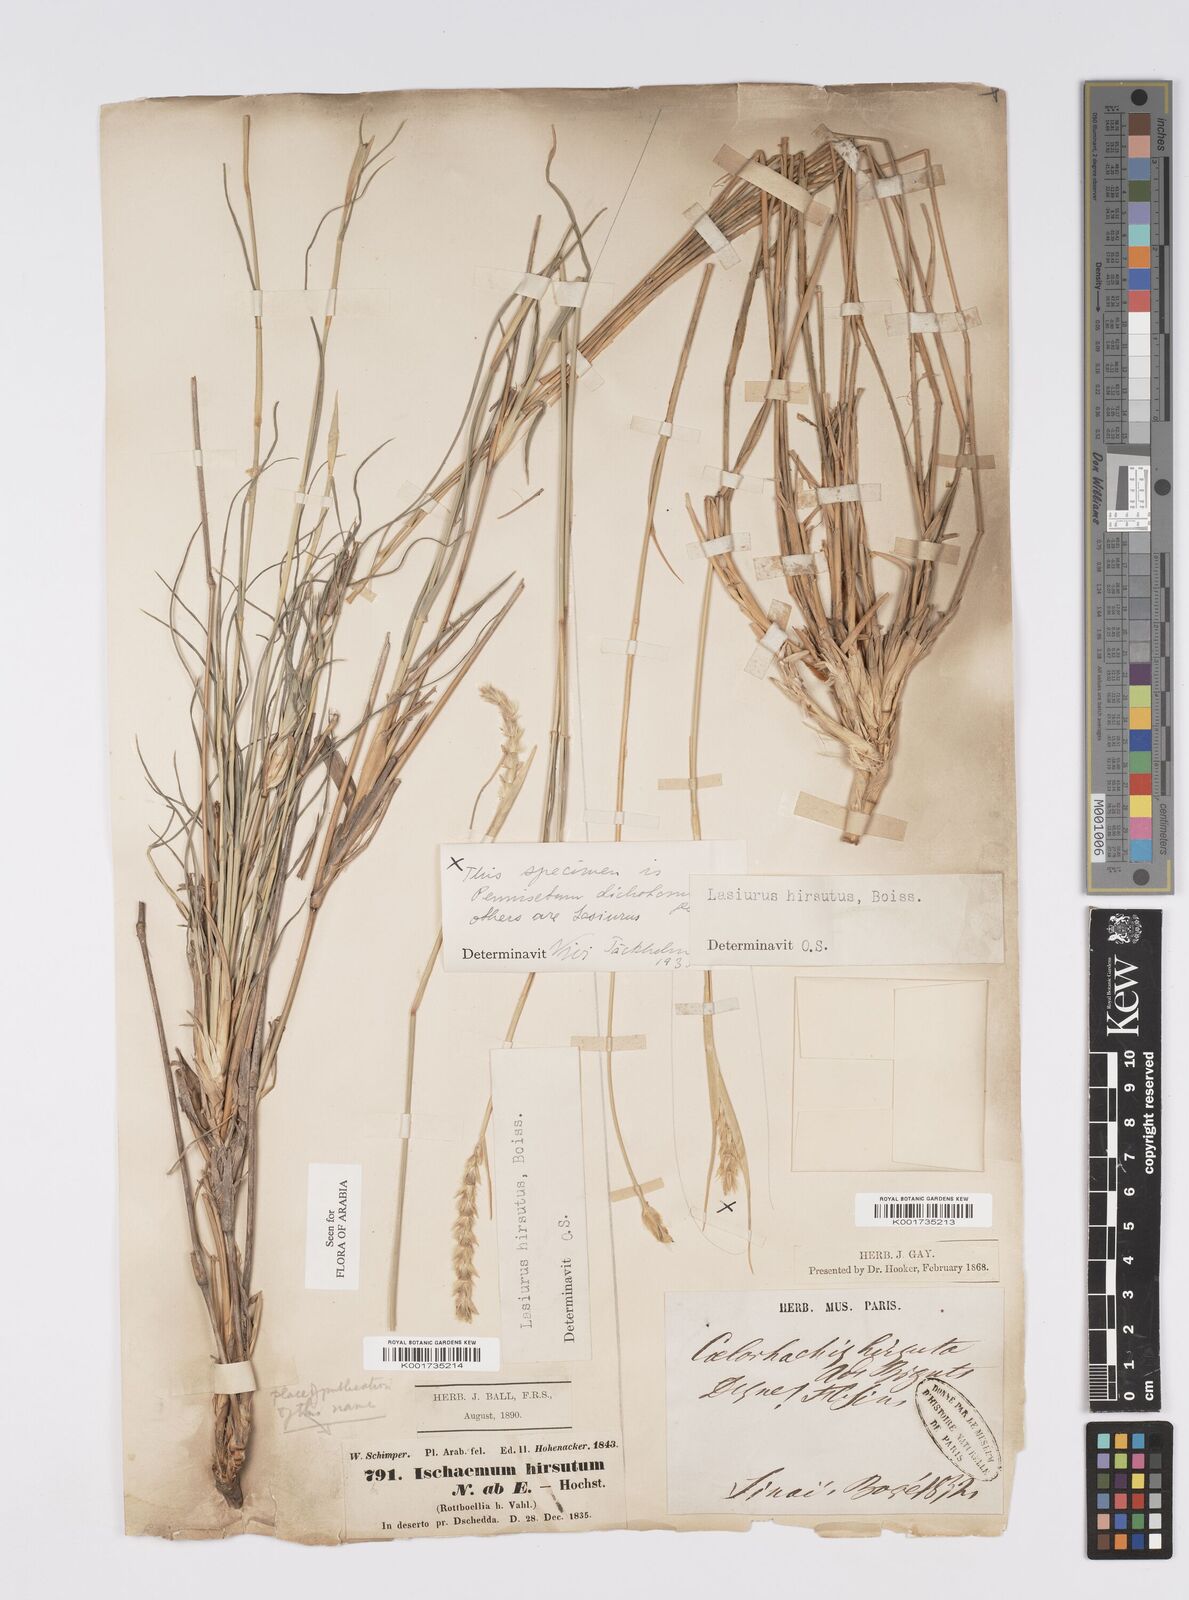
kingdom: Plantae
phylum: Tracheophyta
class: Liliopsida
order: Poales
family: Poaceae
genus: Lasiurus
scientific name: Lasiurus scindicus
